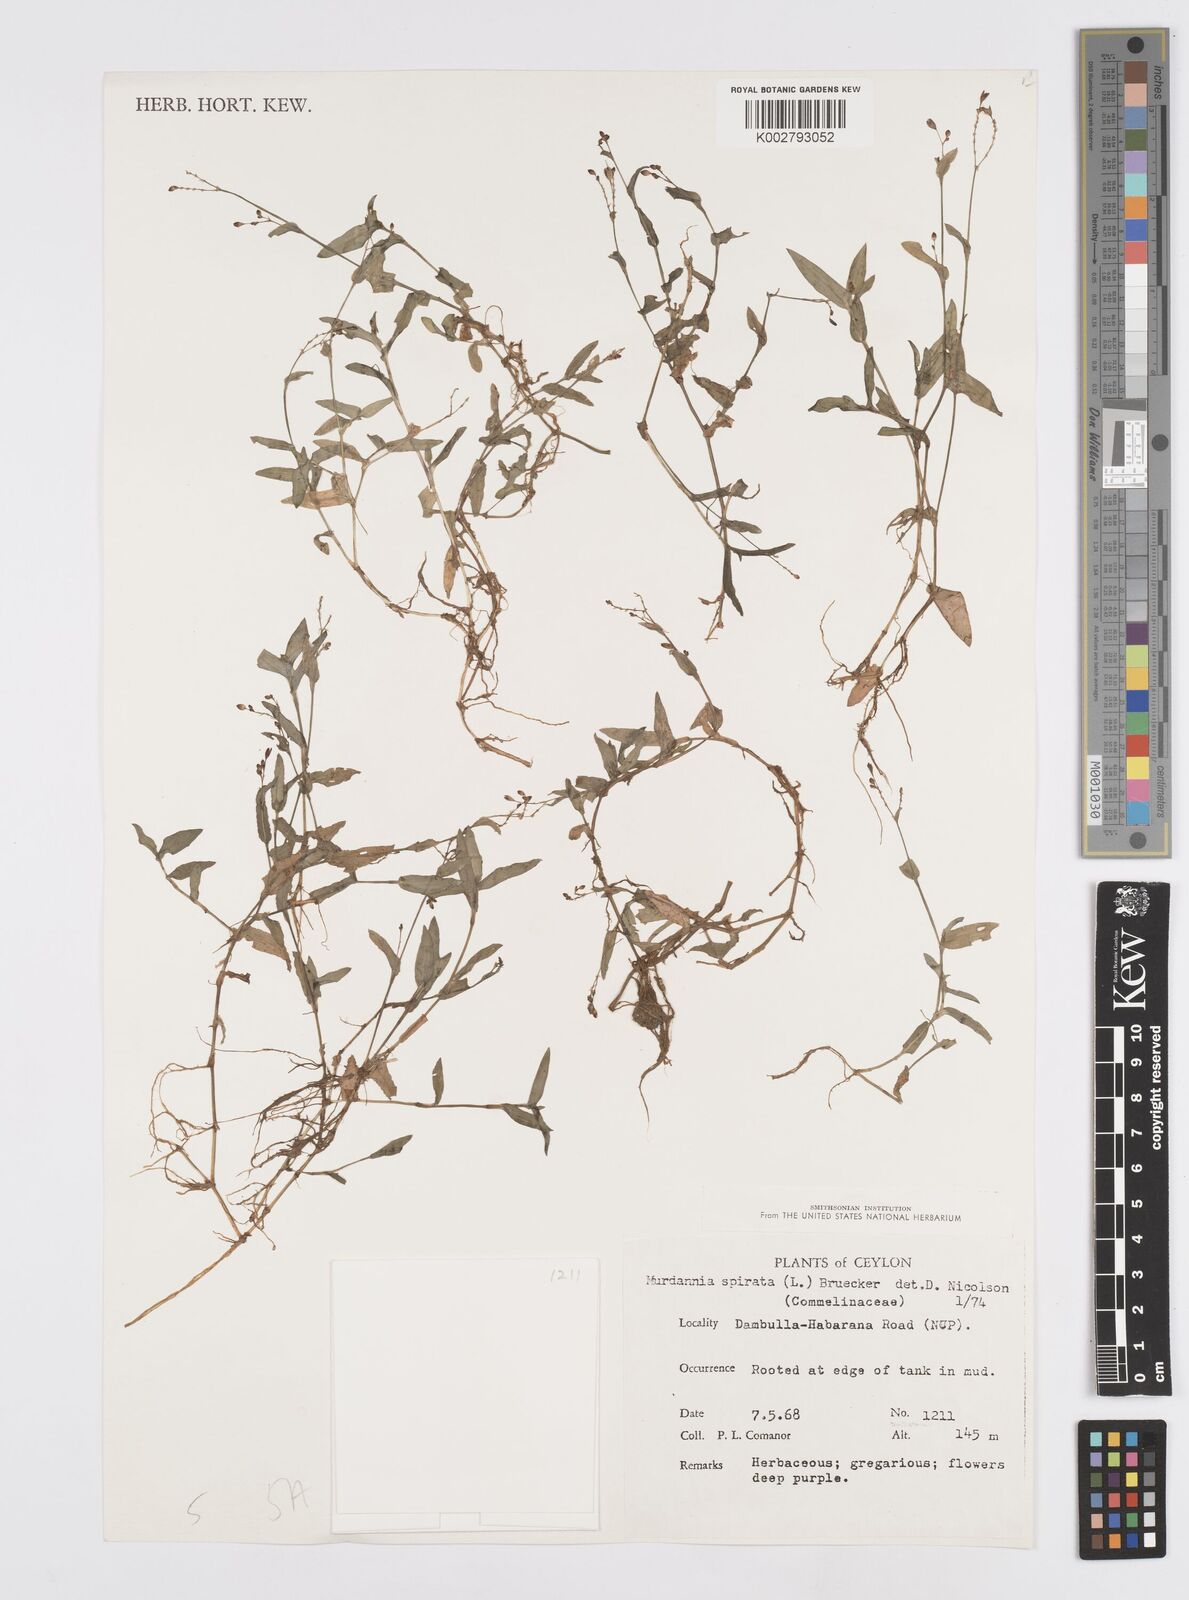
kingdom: Plantae
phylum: Tracheophyta
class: Liliopsida
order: Commelinales
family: Commelinaceae
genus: Murdannia
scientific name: Murdannia spirata
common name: Asiatic dewflower
